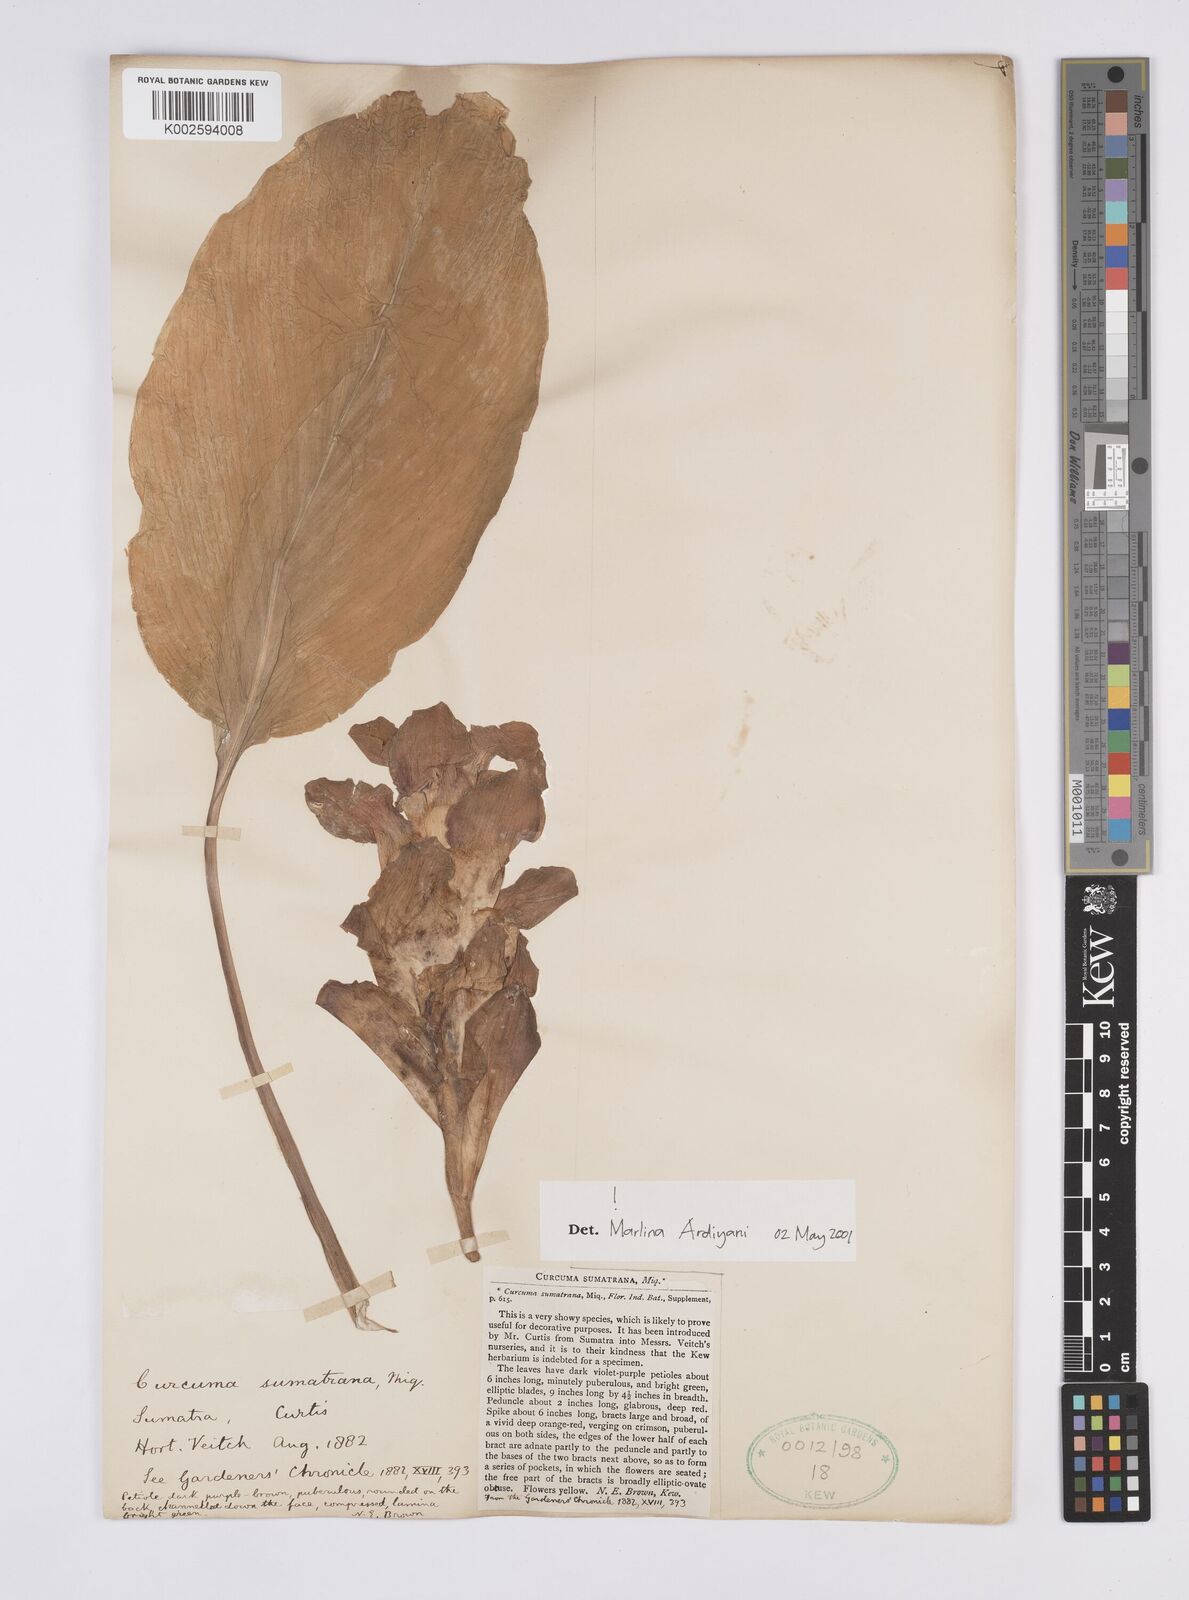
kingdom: Plantae
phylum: Tracheophyta
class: Liliopsida
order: Zingiberales
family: Zingiberaceae
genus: Curcuma
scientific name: Curcuma sumatrana
